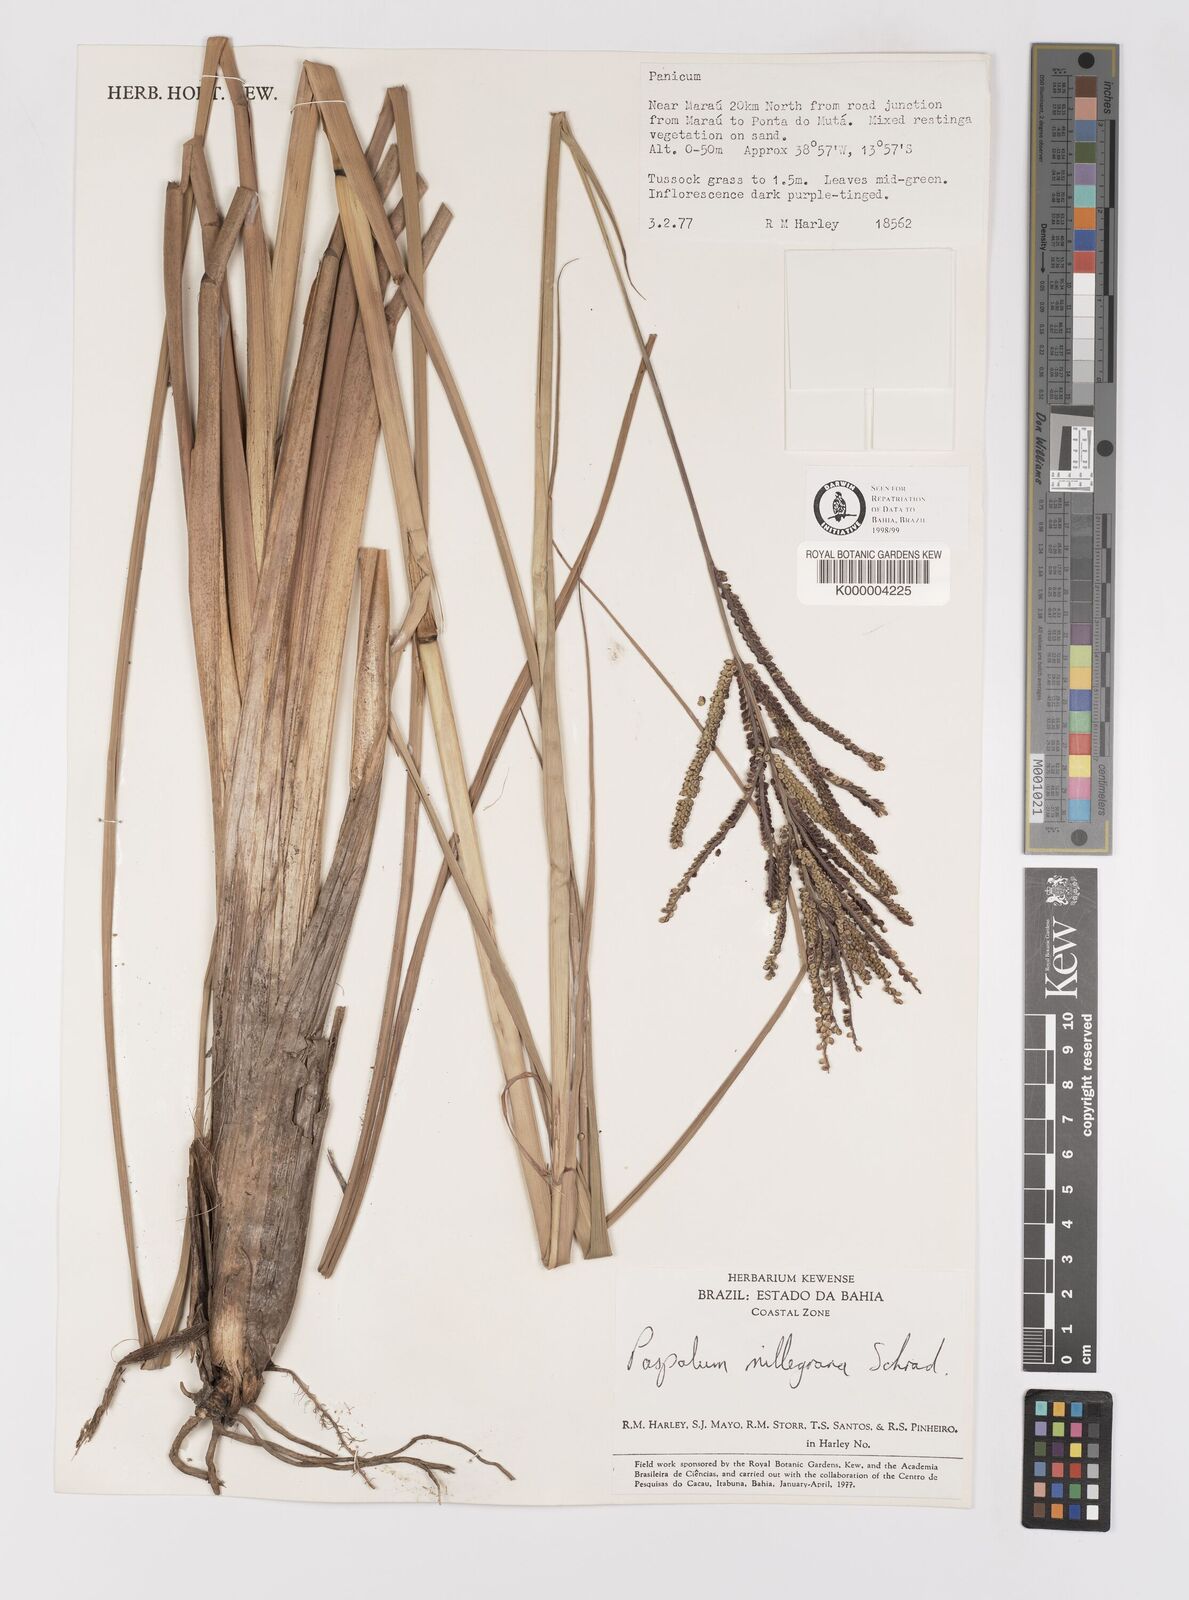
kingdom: Plantae
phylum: Tracheophyta
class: Liliopsida
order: Poales
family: Poaceae
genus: Paspalum
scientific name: Paspalum millegranum
